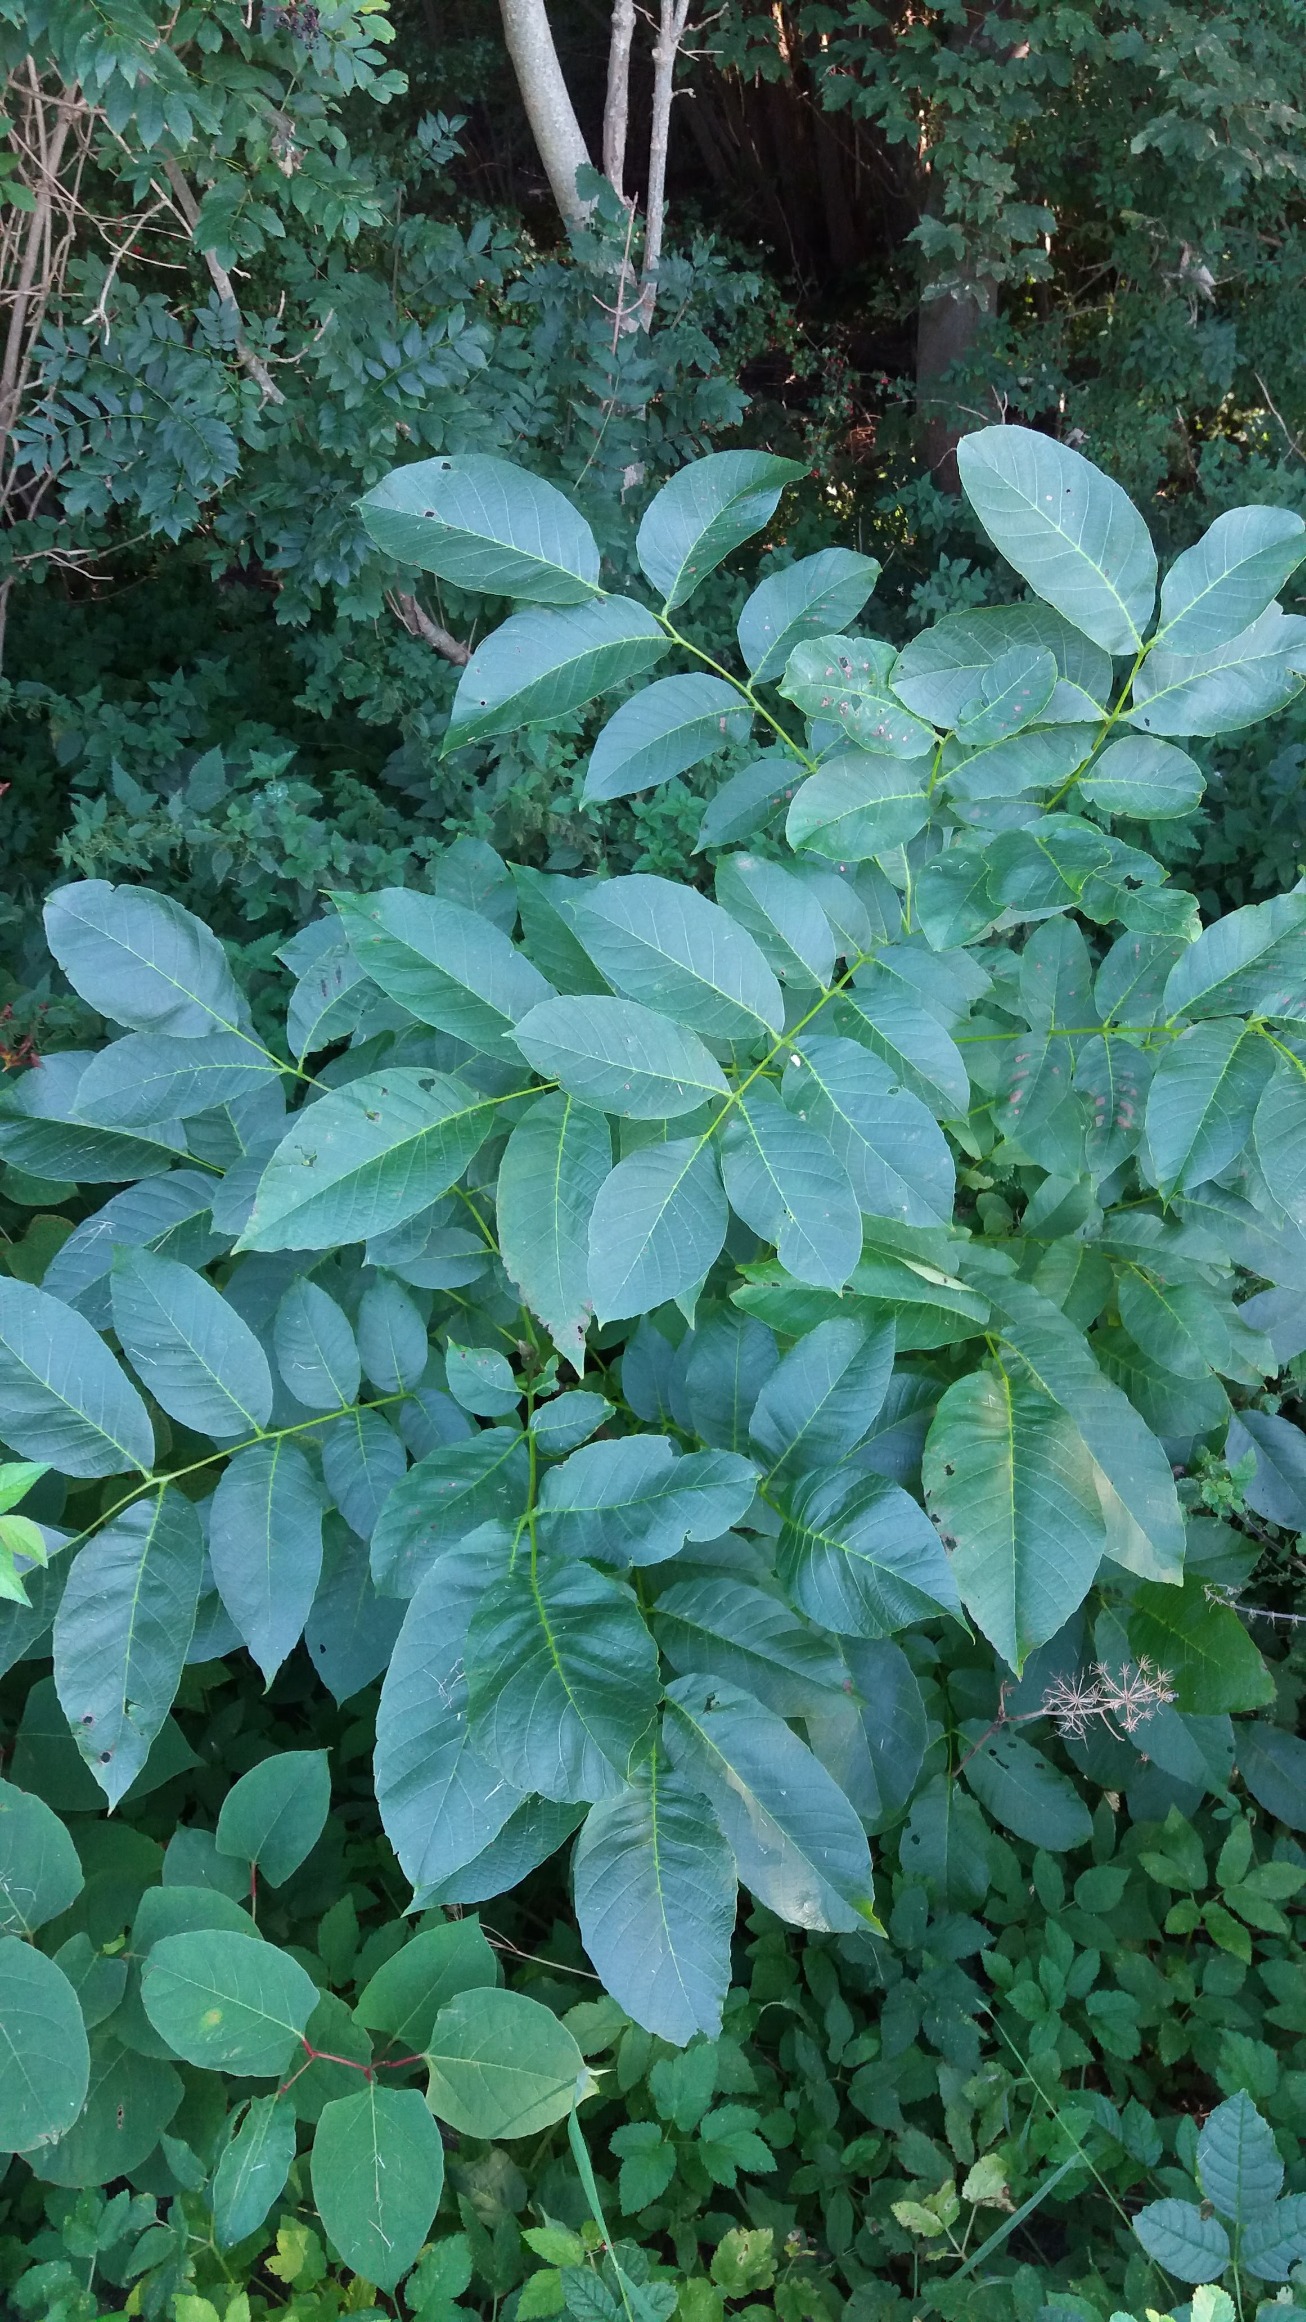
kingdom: Plantae
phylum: Tracheophyta
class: Magnoliopsida
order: Fagales
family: Juglandaceae
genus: Juglans
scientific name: Juglans regia
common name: Almindelig valnød
